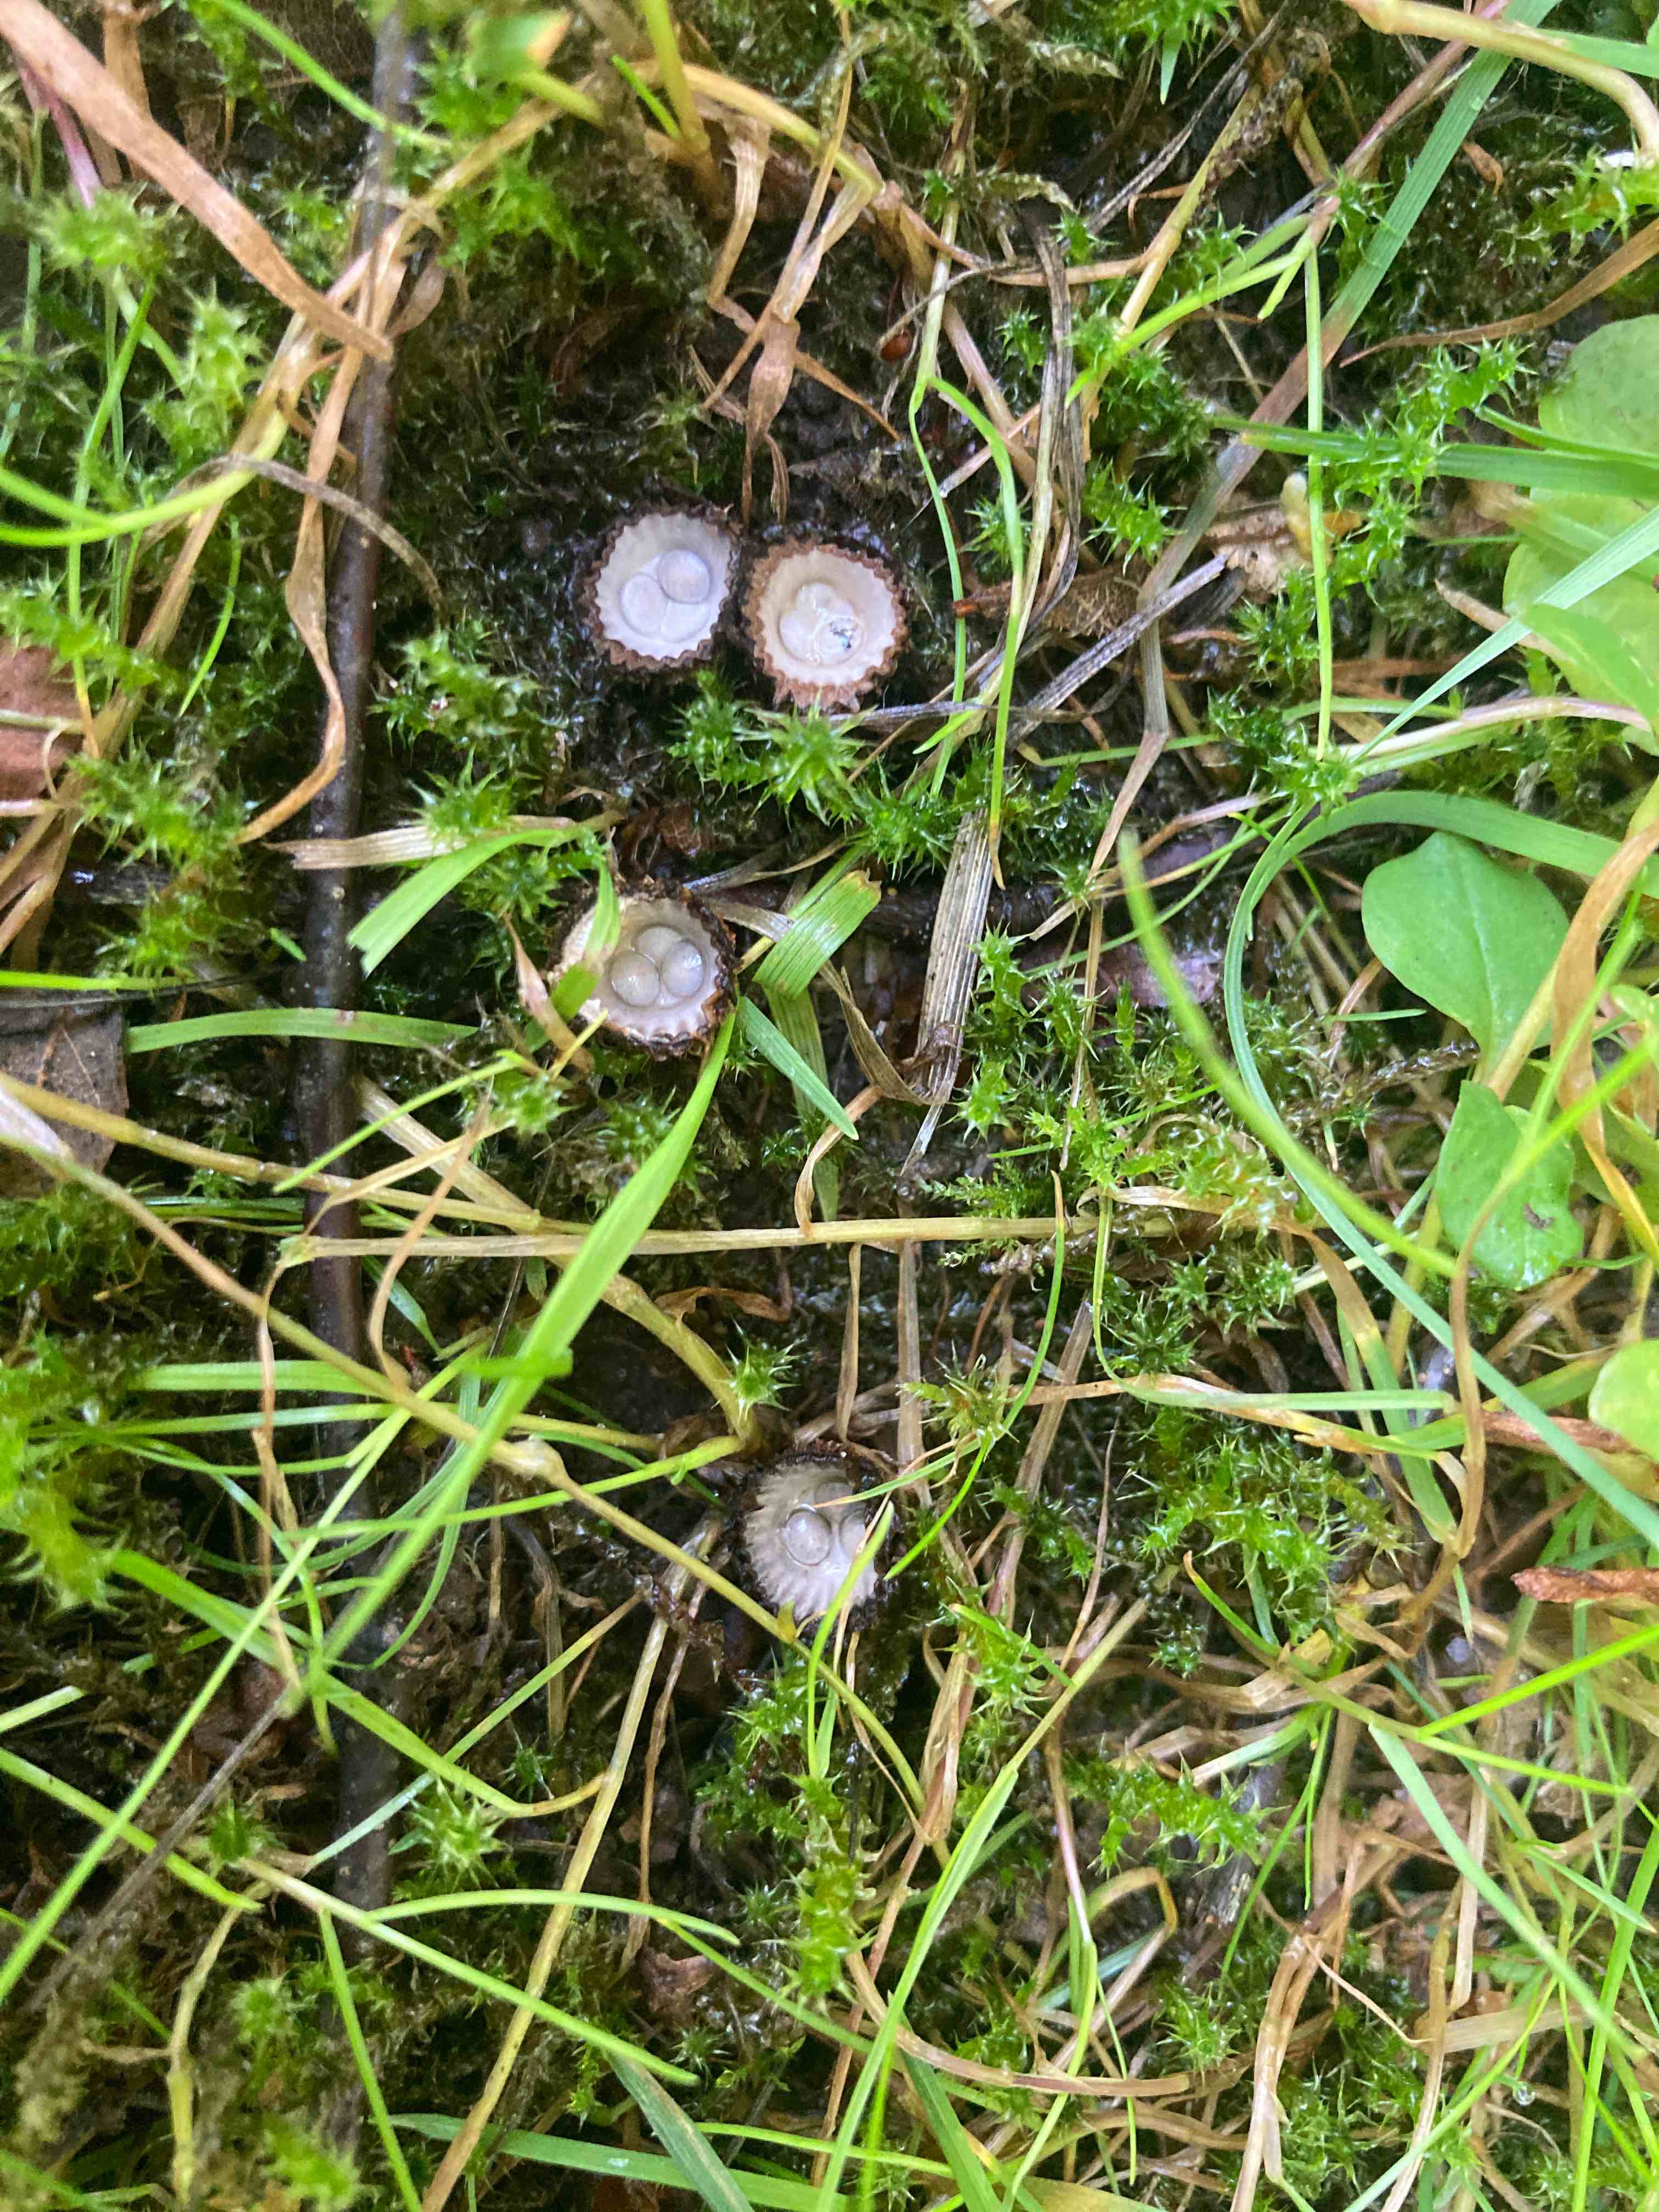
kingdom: Fungi
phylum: Basidiomycota
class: Agaricomycetes
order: Agaricales
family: Agaricaceae
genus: Cyathus
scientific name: Cyathus striatus
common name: stribet redesvamp
